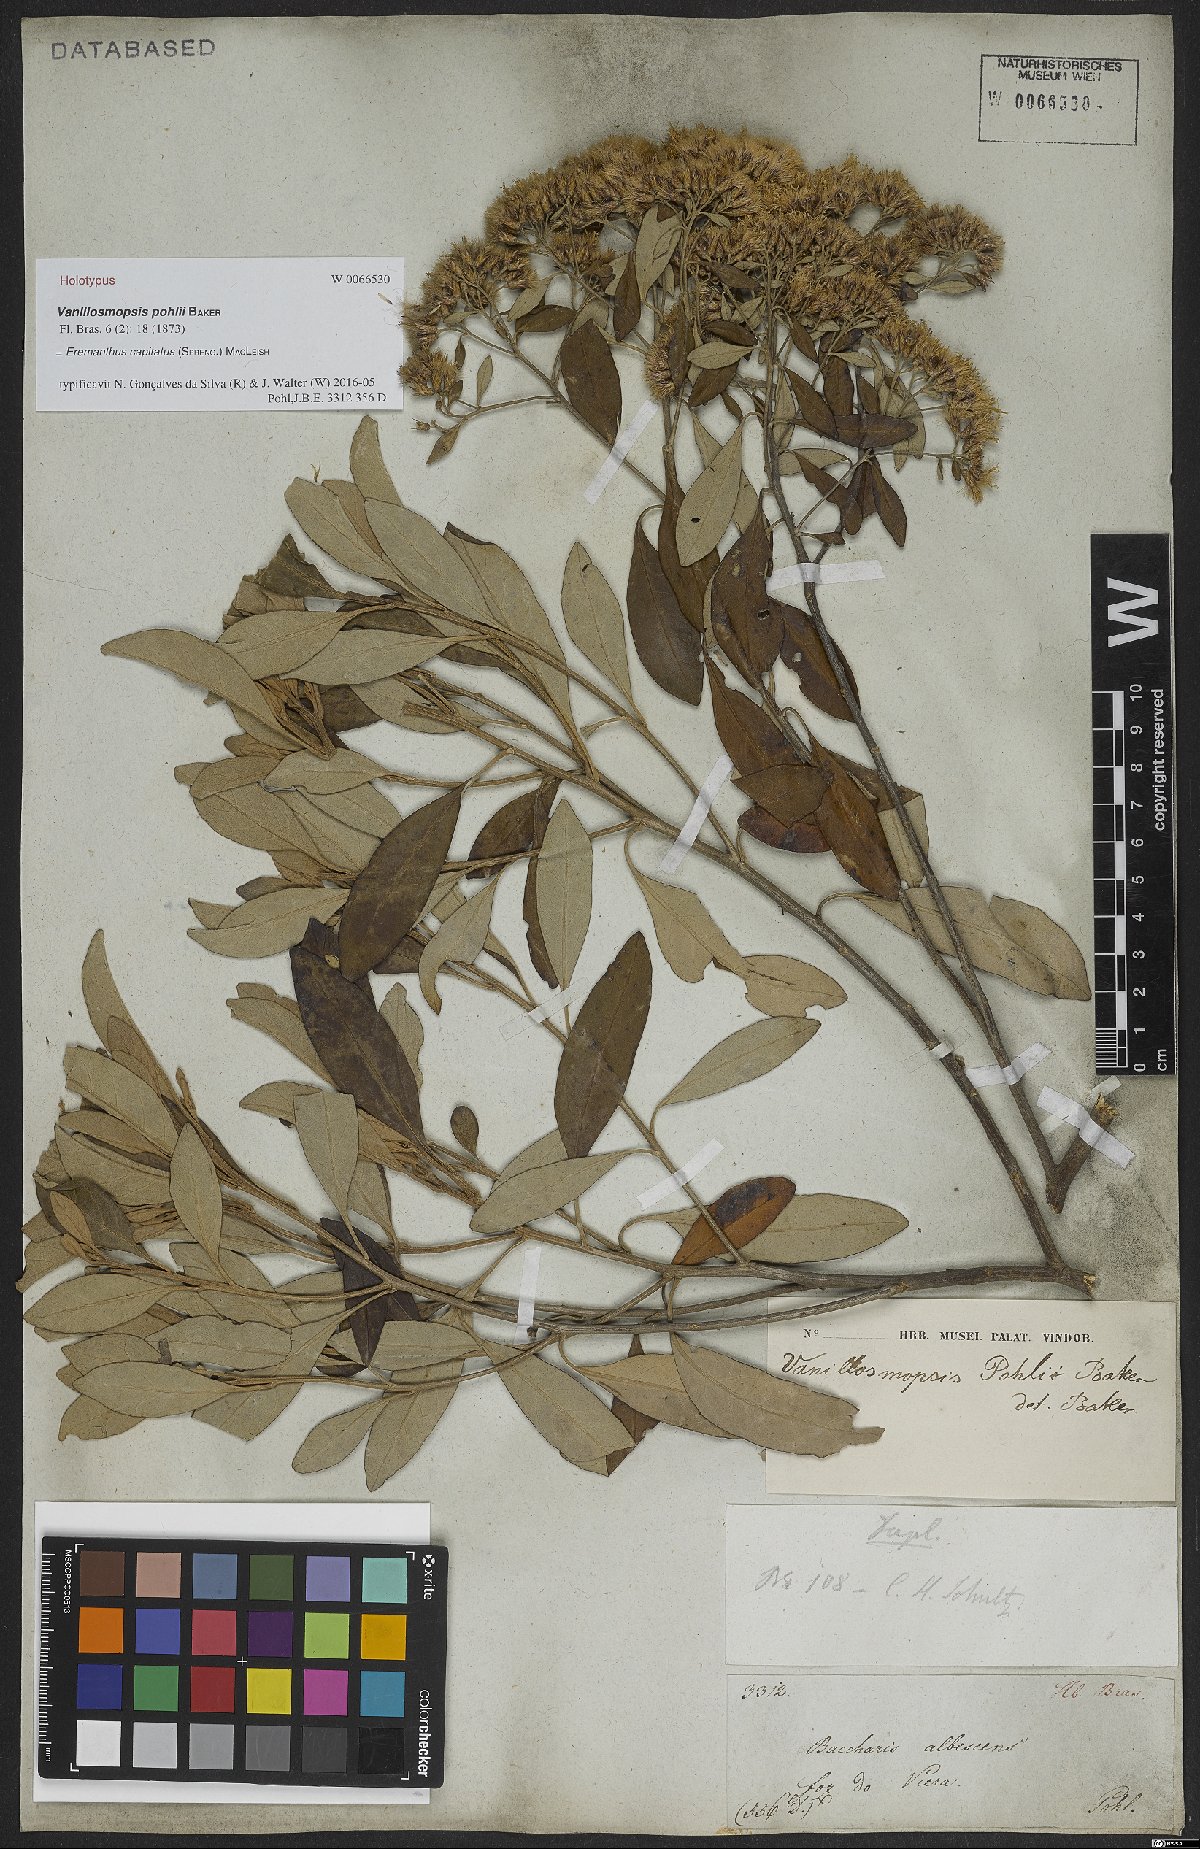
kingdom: Plantae
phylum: Tracheophyta
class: Magnoliopsida
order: Asterales
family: Asteraceae
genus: Eremanthus
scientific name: Eremanthus capitatus
